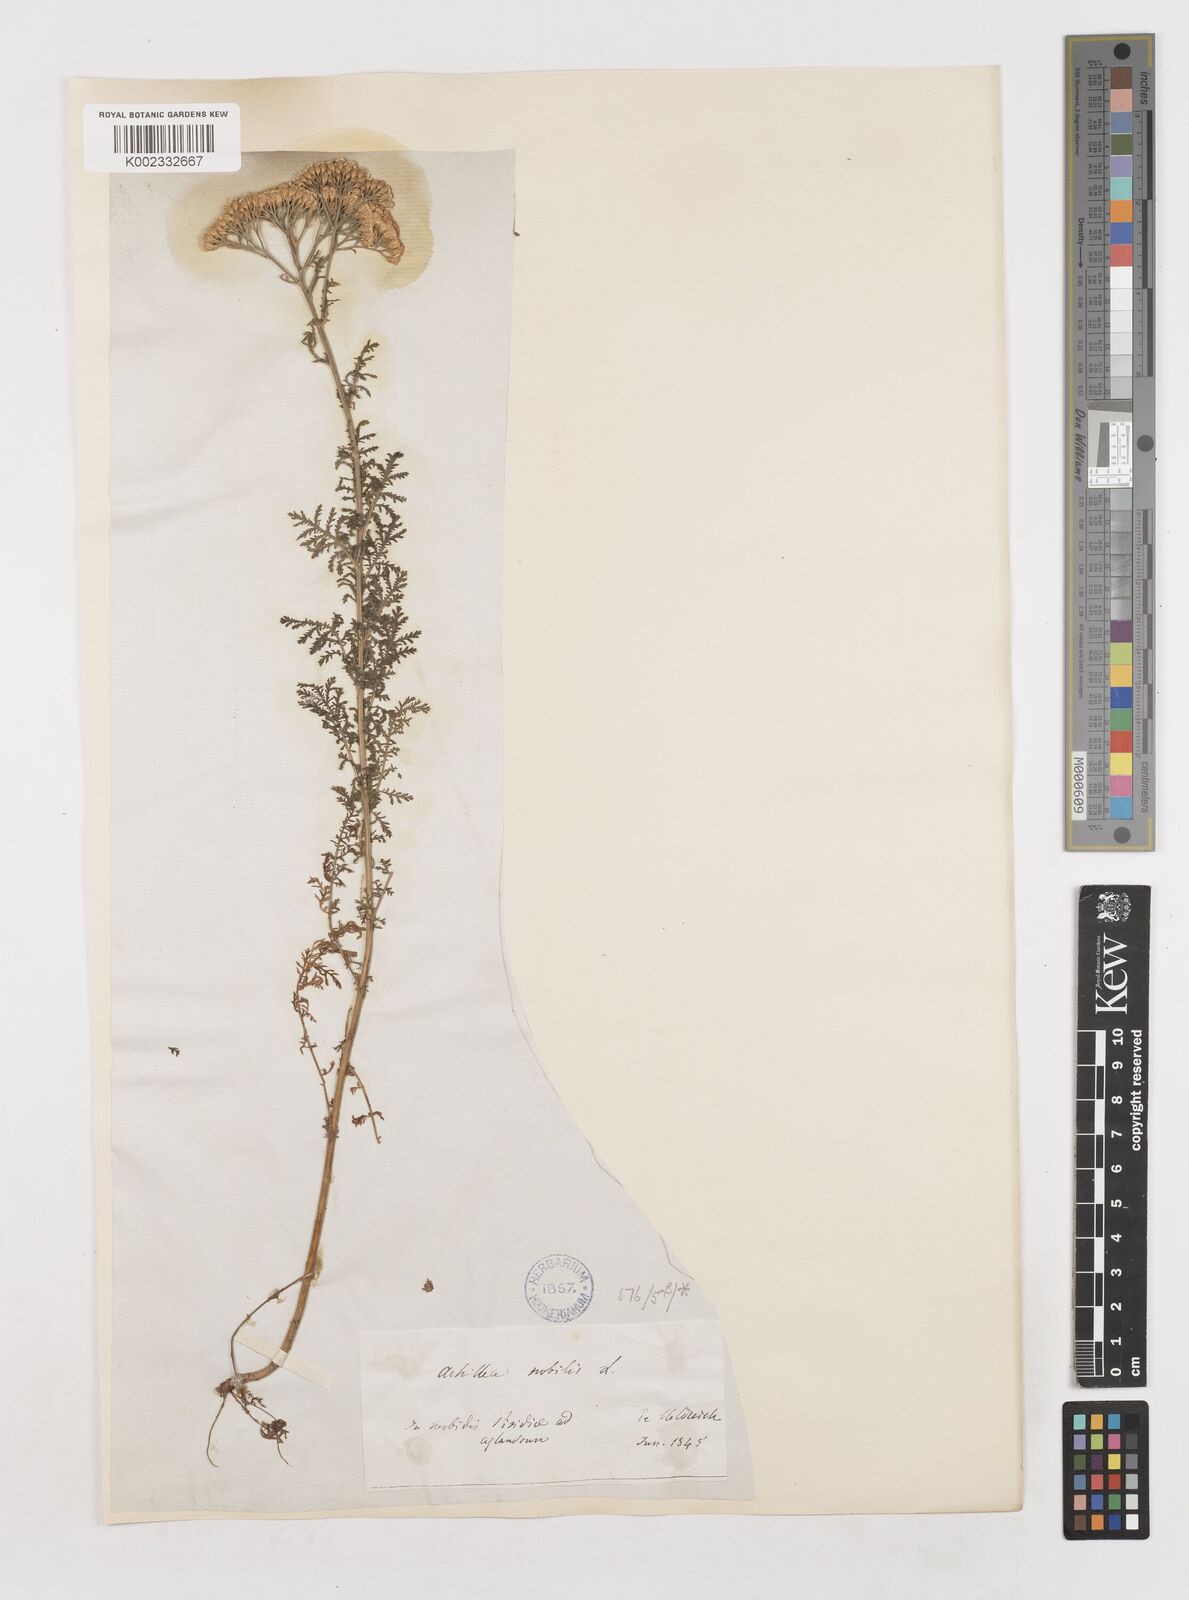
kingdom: Plantae
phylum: Tracheophyta
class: Magnoliopsida
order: Asterales
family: Asteraceae
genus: Achillea
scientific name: Achillea nobilis
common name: Noble yarrow
